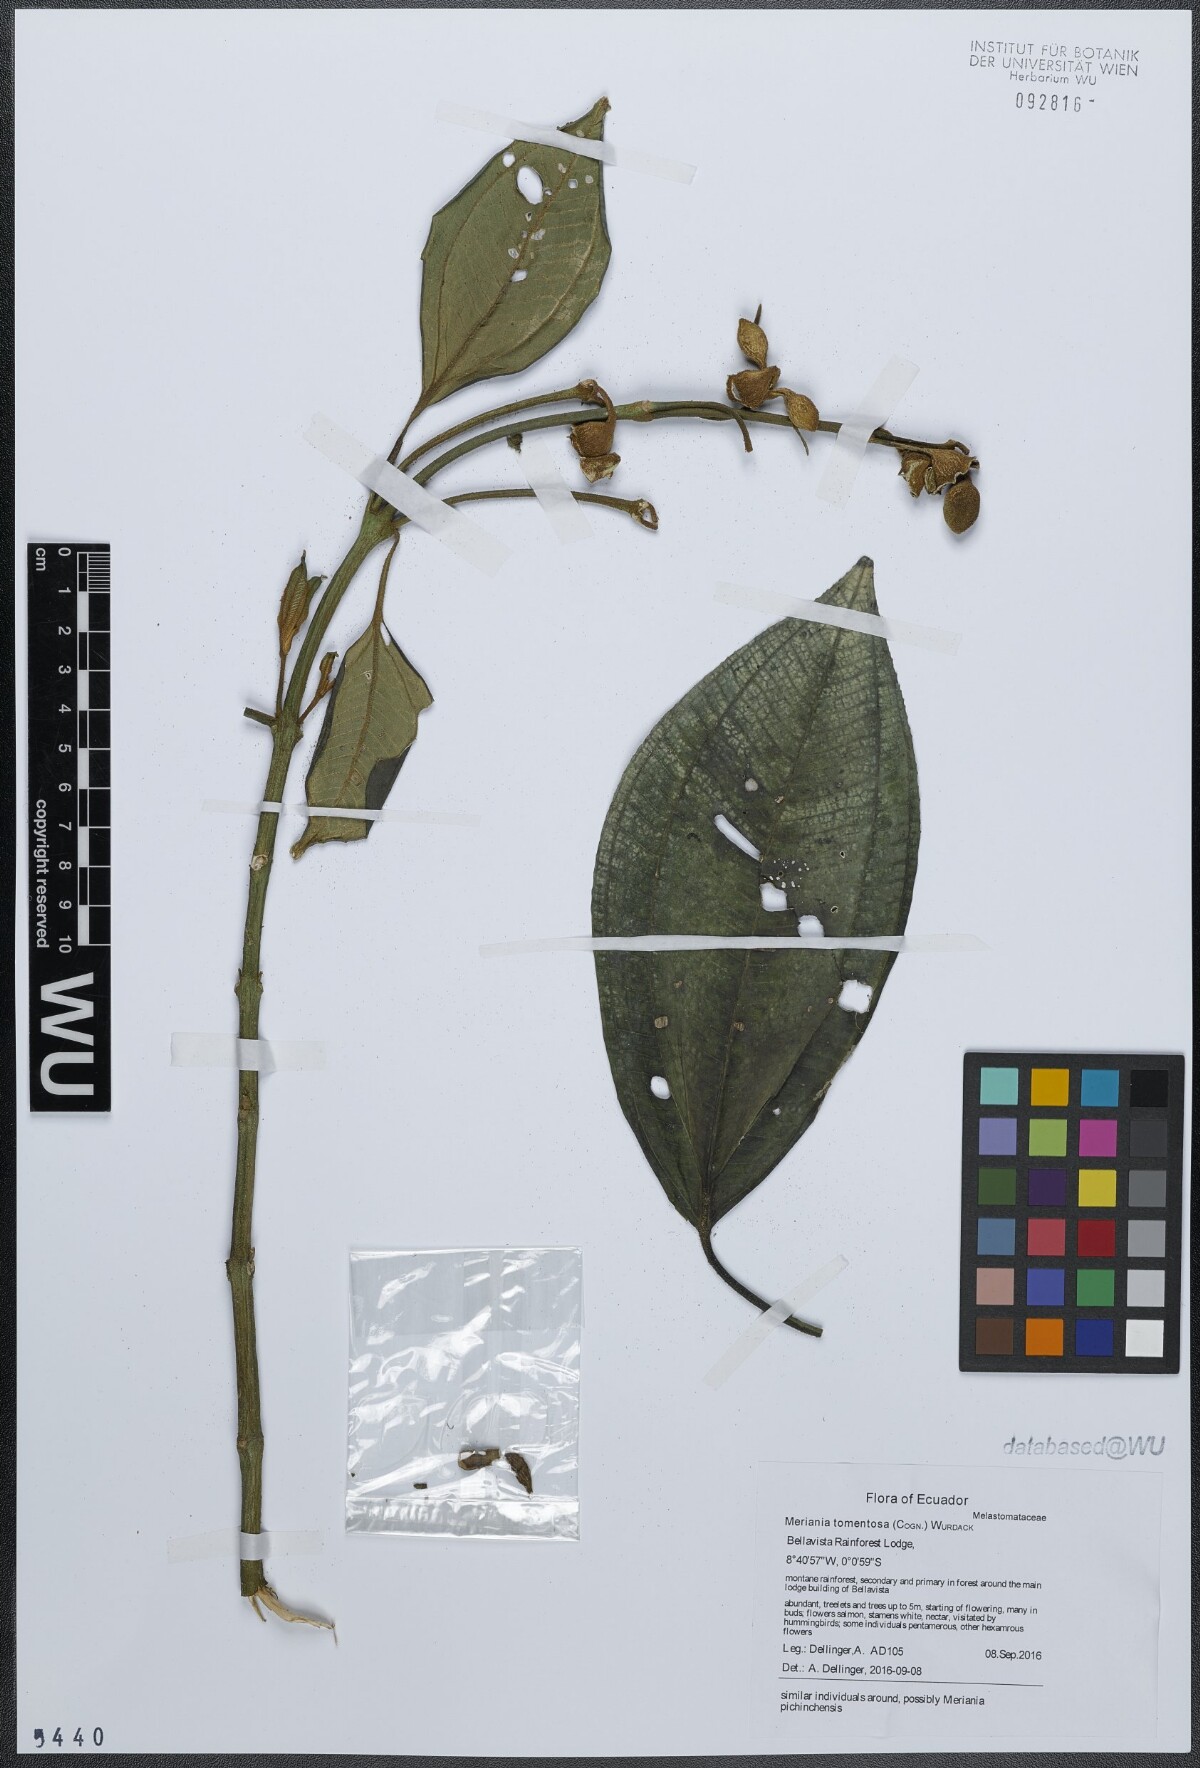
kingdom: Plantae
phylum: Tracheophyta
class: Magnoliopsida
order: Myrtales
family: Melastomataceae
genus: Meriania
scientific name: Meriania tomentosa
